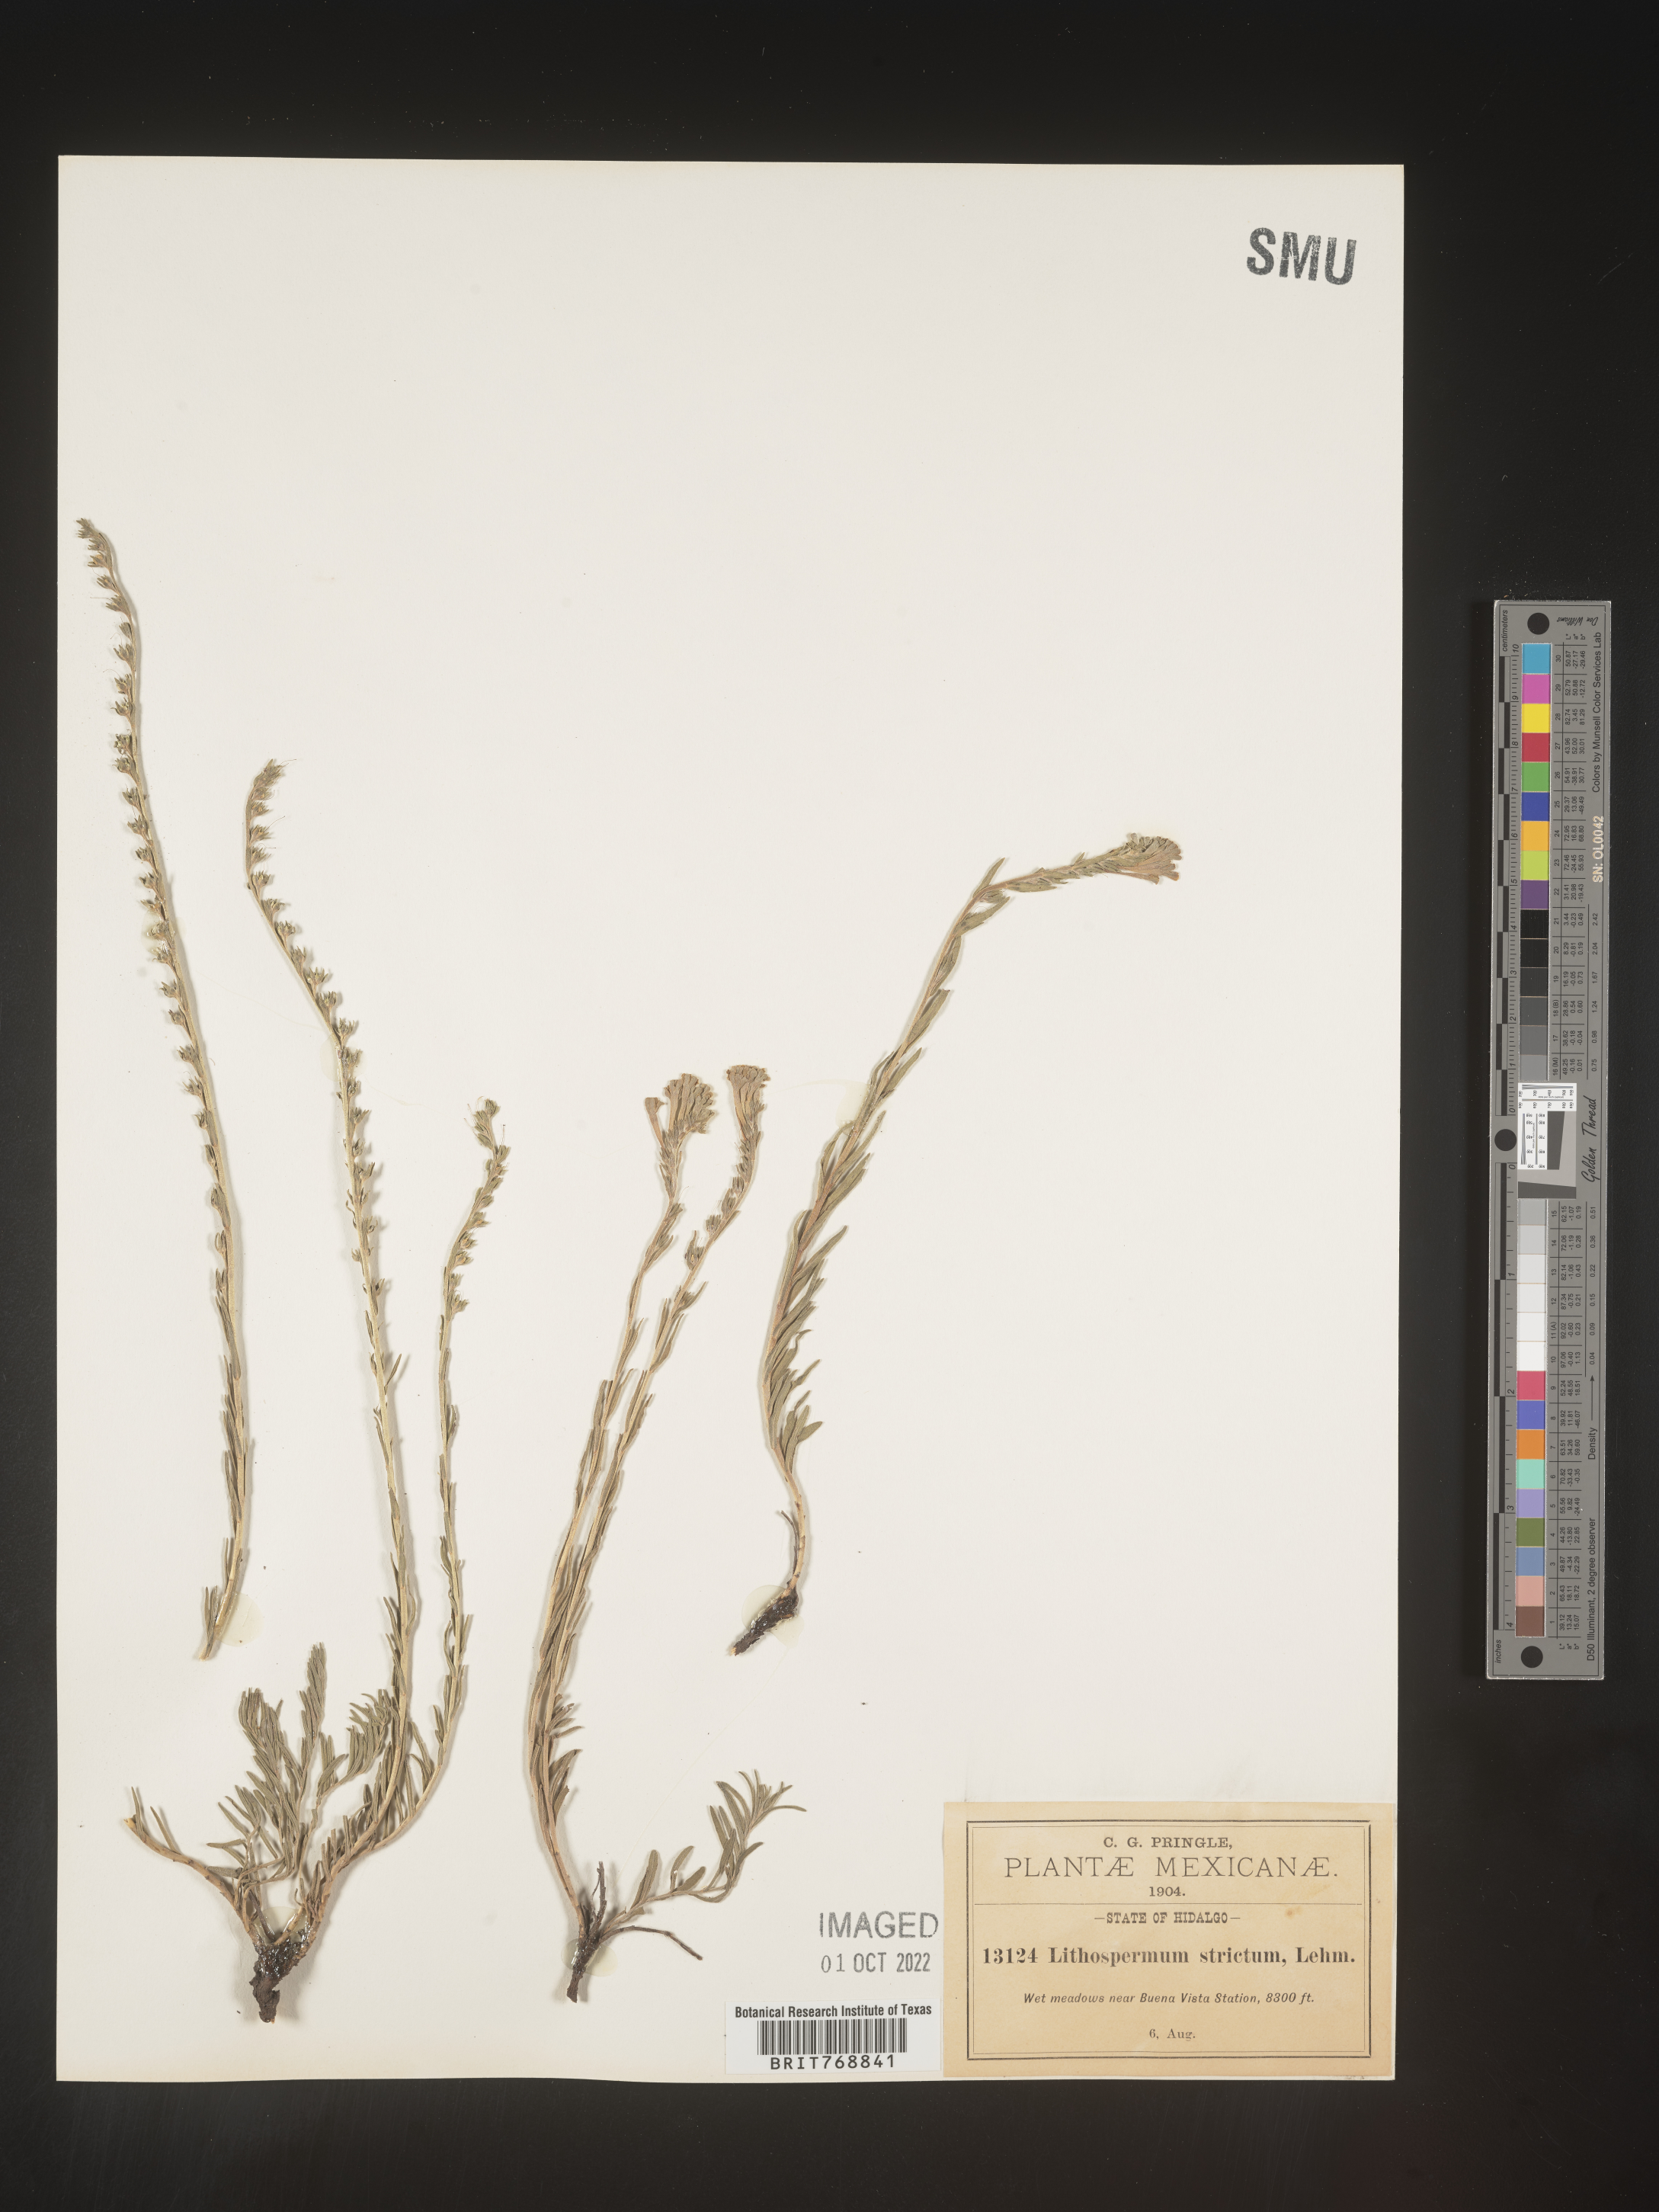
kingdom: Plantae
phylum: Tracheophyta
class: Magnoliopsida
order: Boraginales
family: Boraginaceae
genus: Lithospermum
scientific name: Lithospermum
